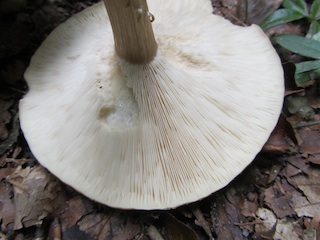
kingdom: Fungi
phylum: Basidiomycota
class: Agaricomycetes
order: Agaricales
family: Tricholomataceae
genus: Melanoleuca
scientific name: Melanoleuca grammopodia
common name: stribestokket munkehat
